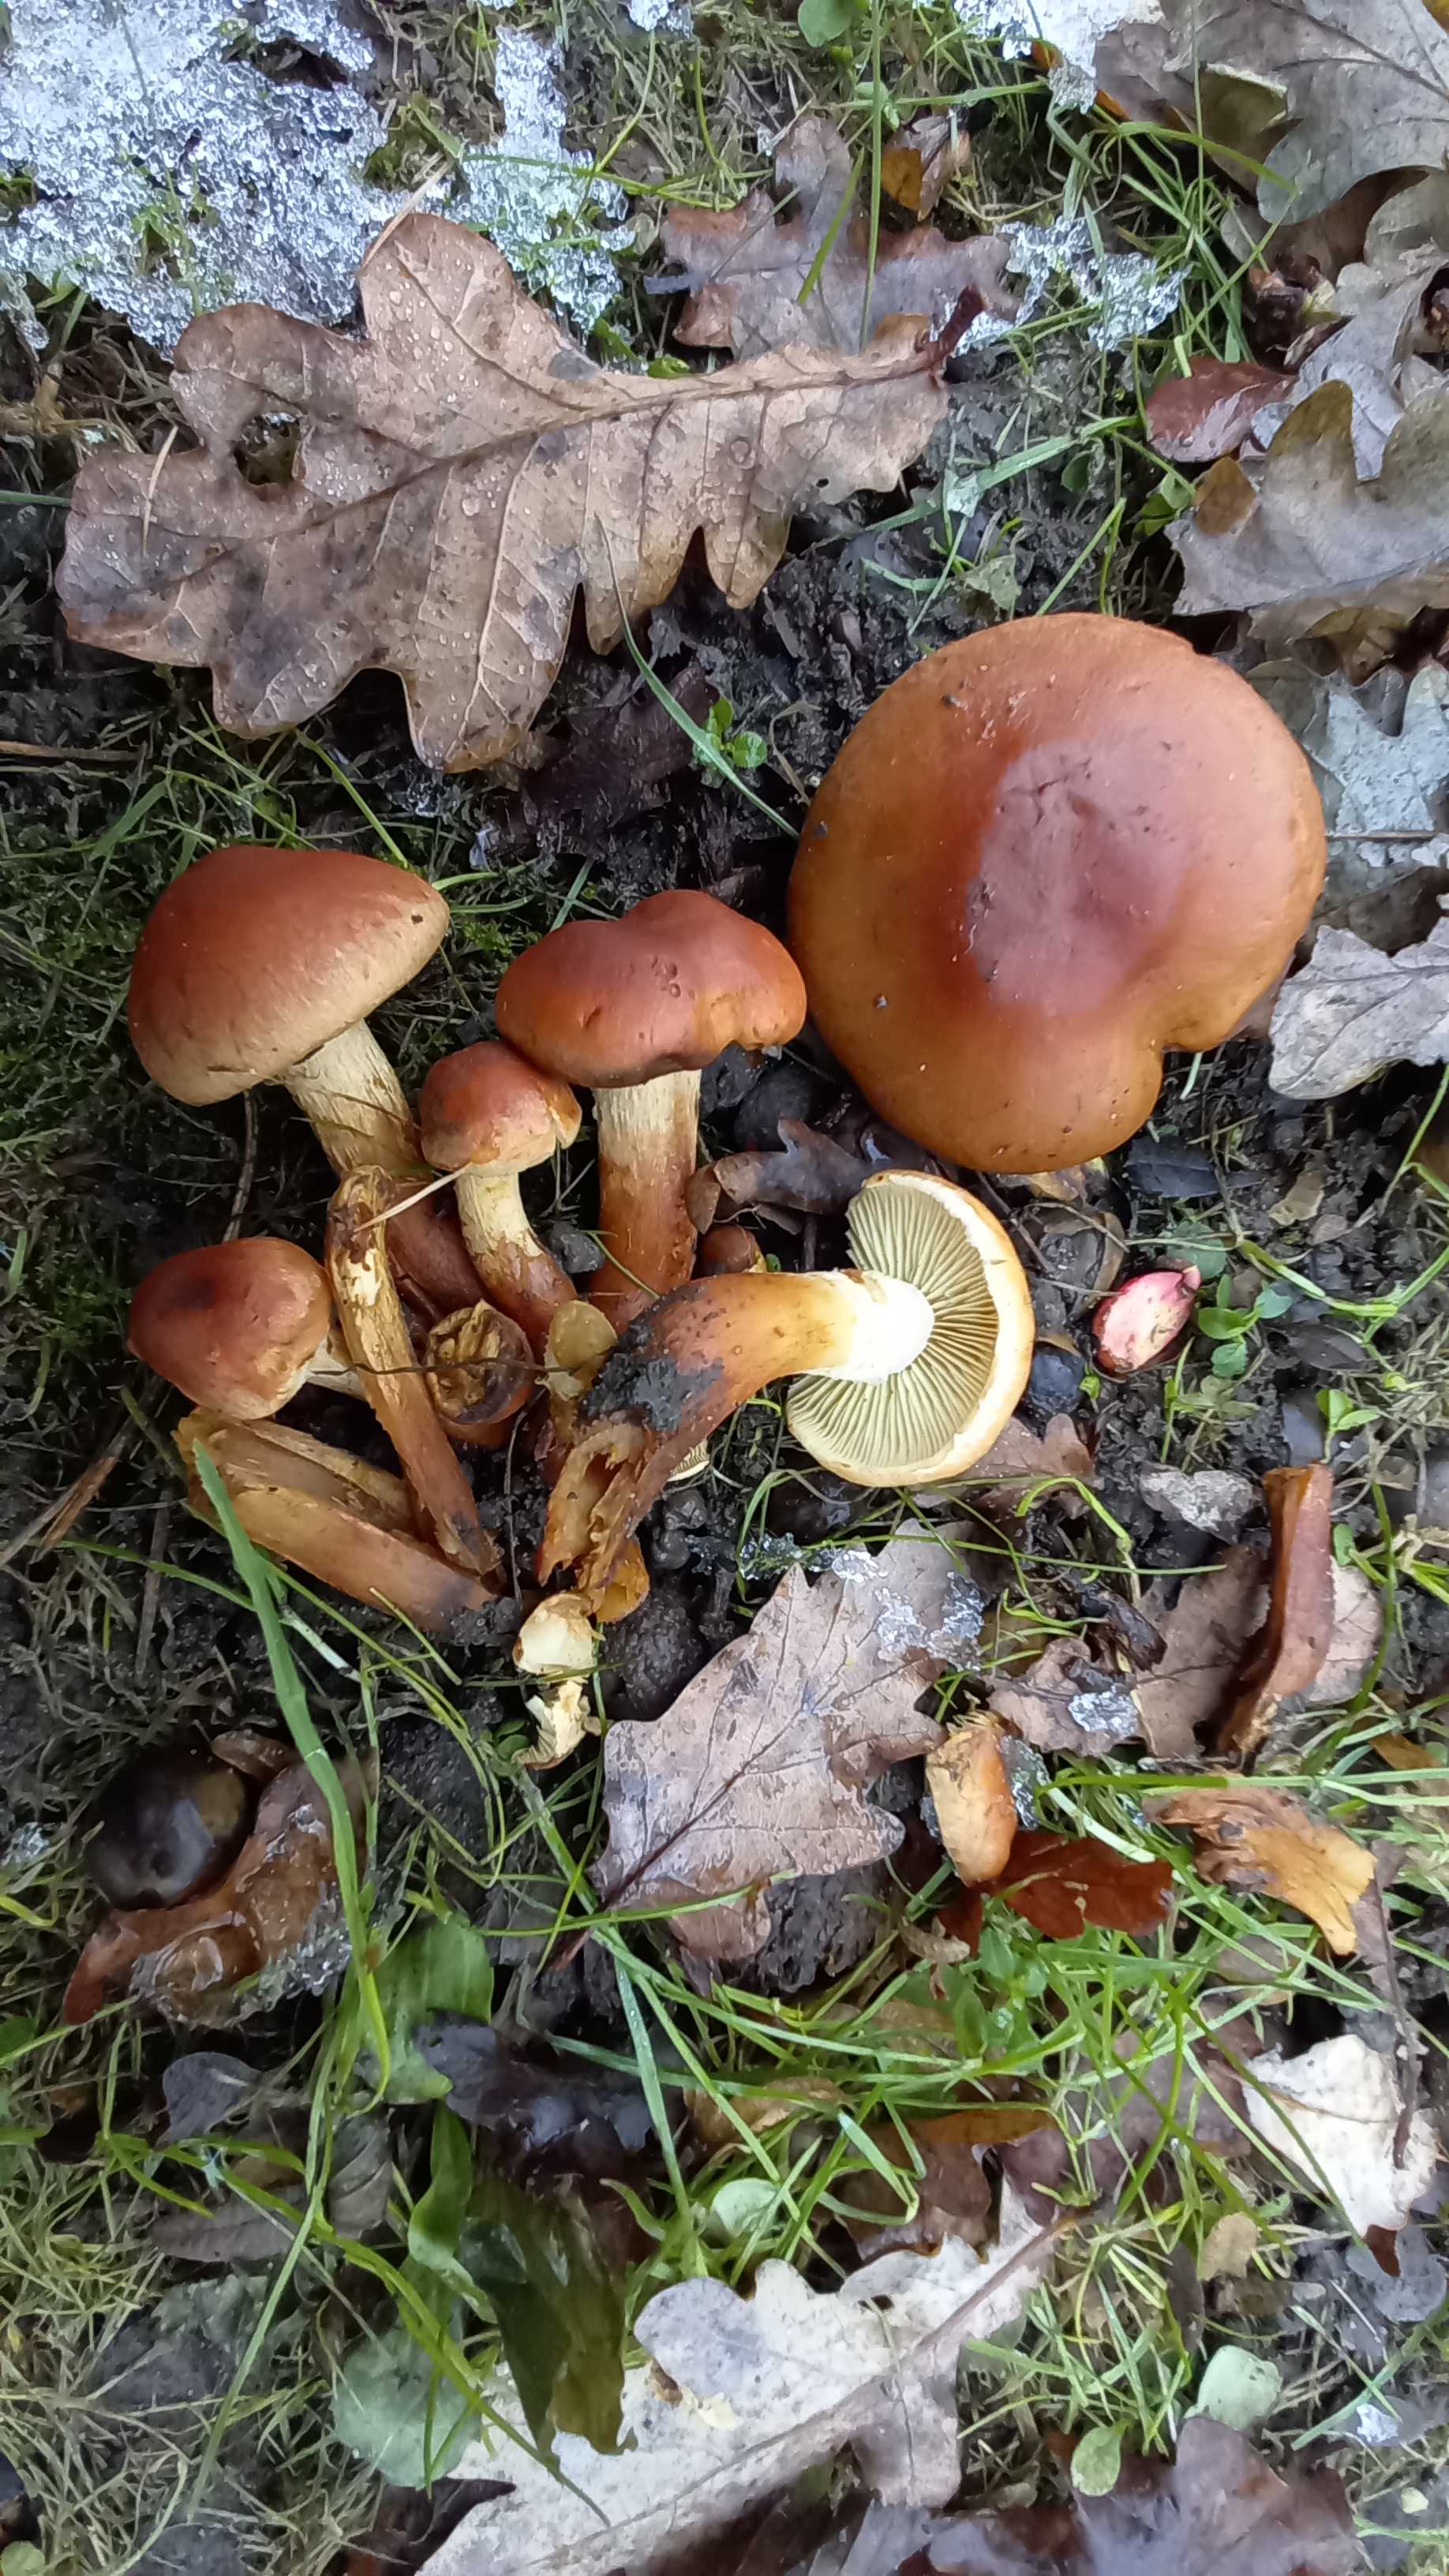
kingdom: Fungi
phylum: Basidiomycota
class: Agaricomycetes
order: Agaricales
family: Strophariaceae
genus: Hypholoma
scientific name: Hypholoma lateritium
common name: teglrød svovlhat
